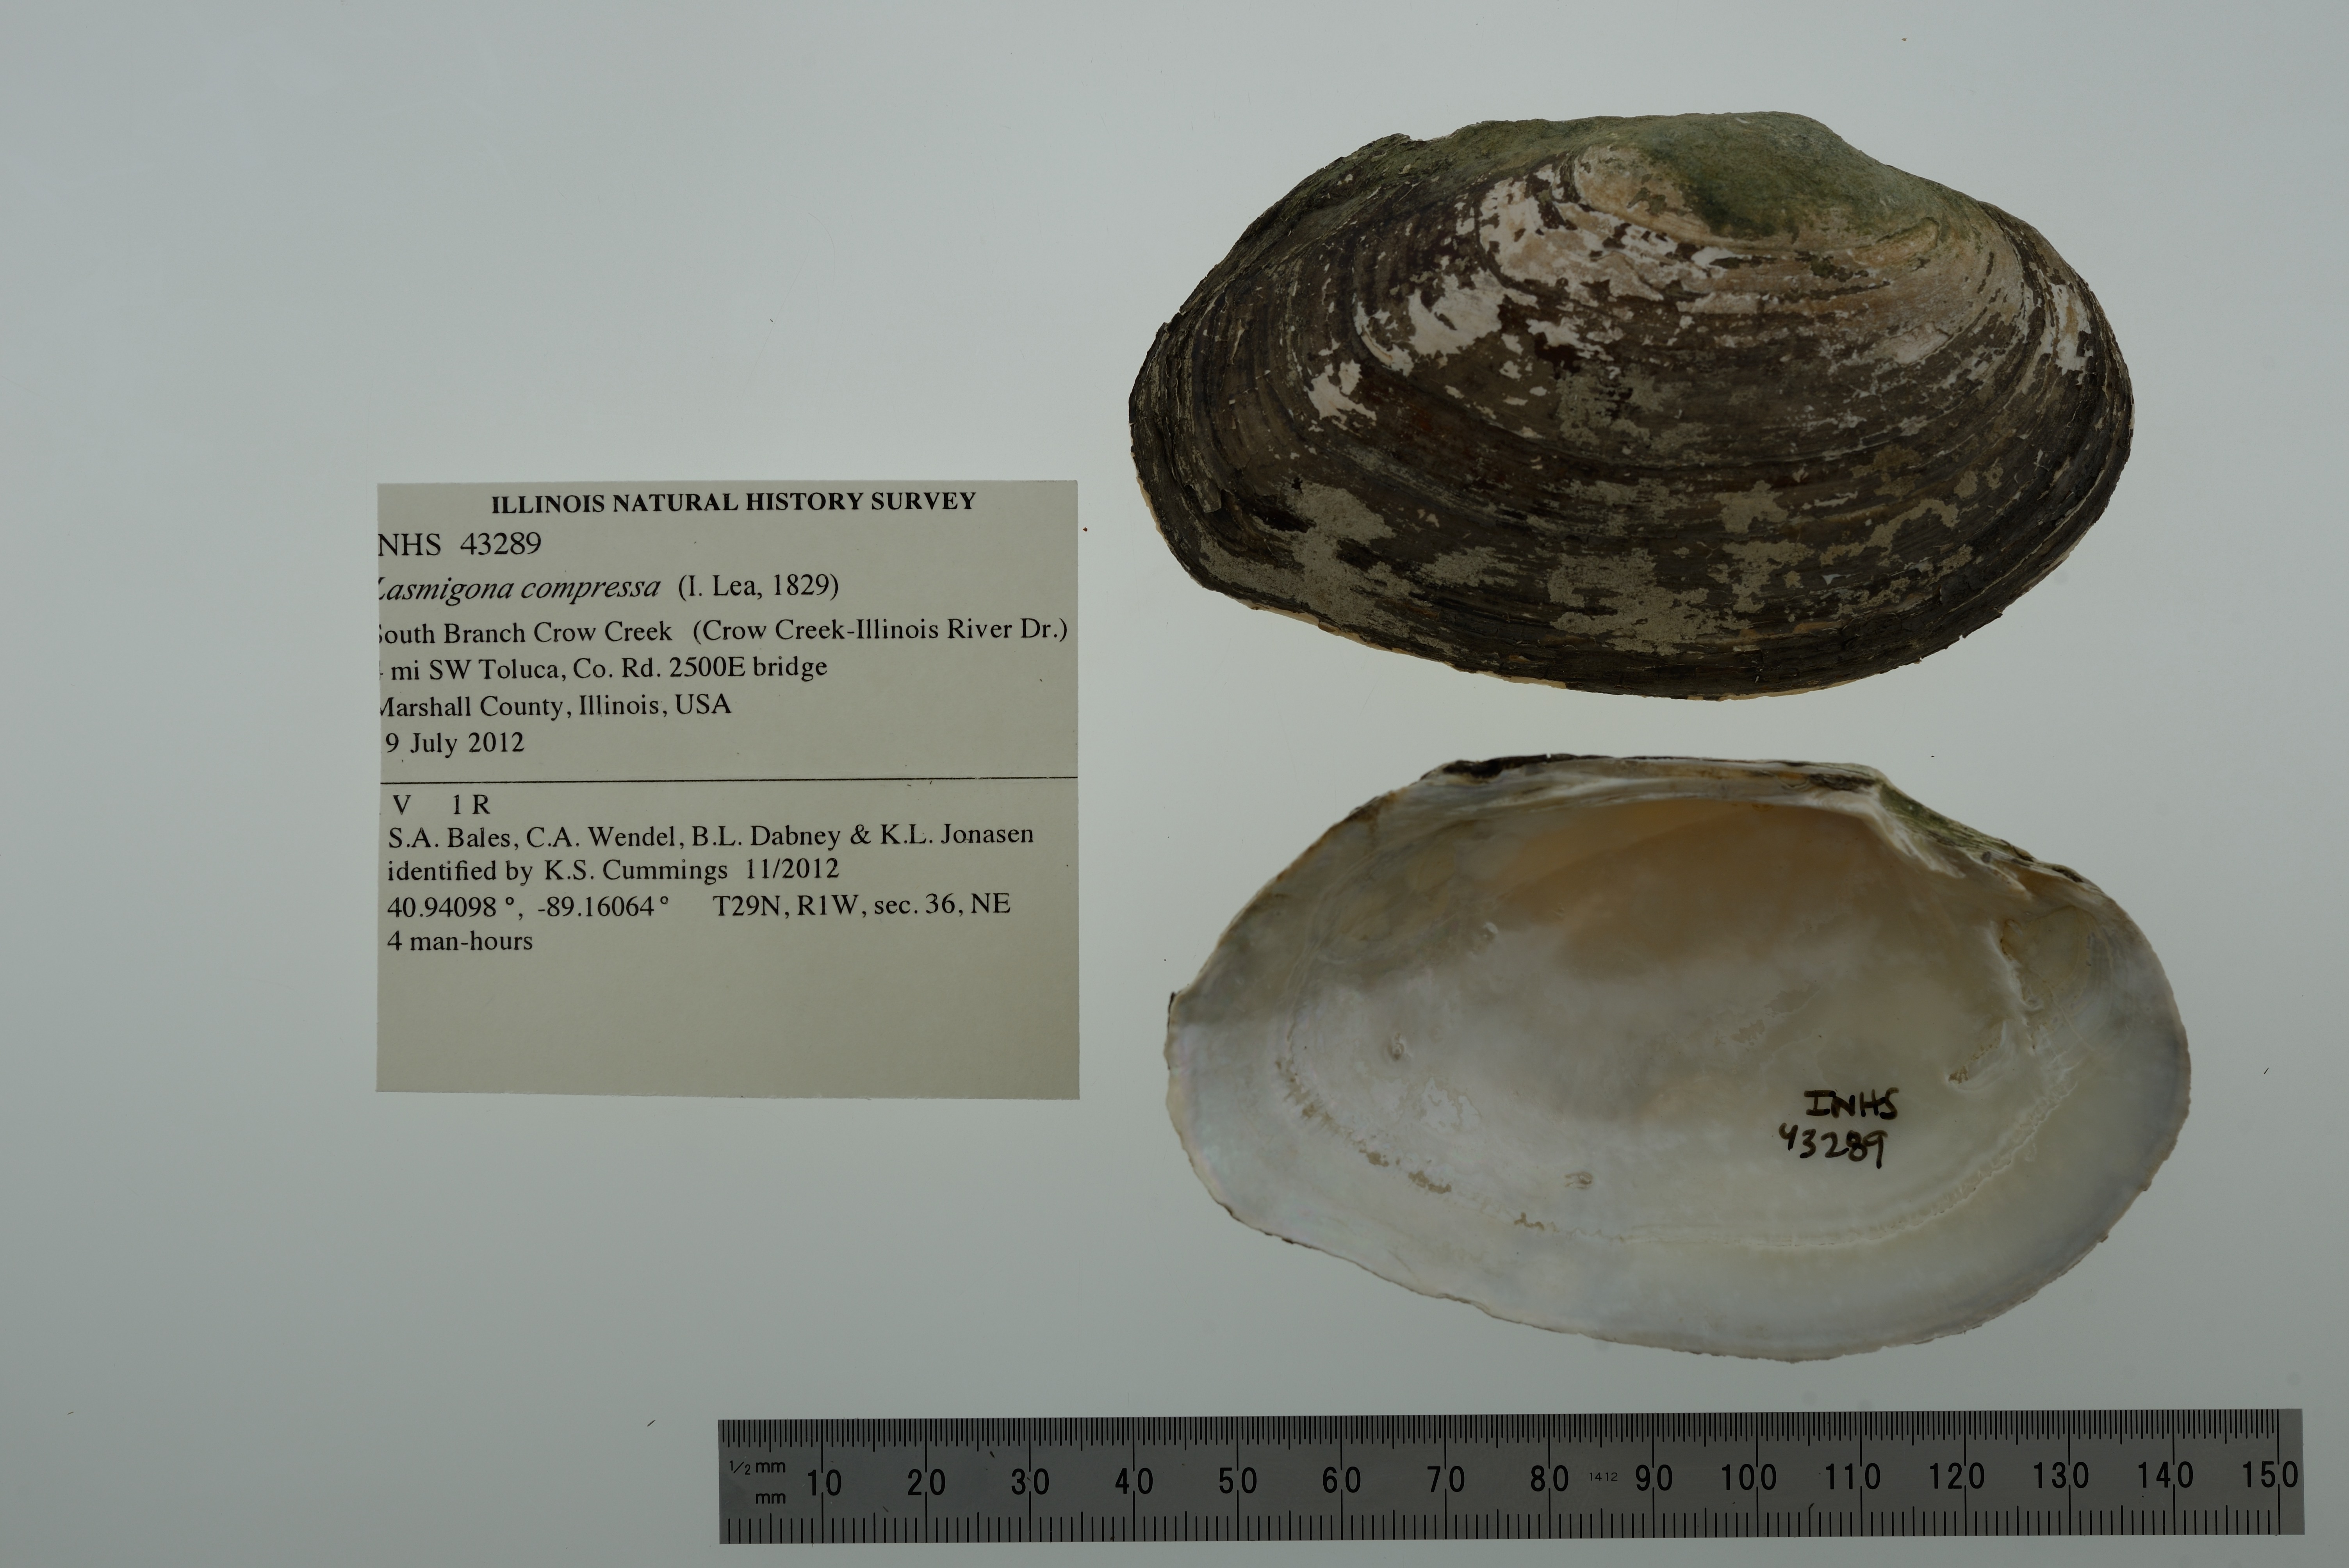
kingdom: Animalia
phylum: Mollusca
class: Bivalvia
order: Unionida
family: Unionidae
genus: Lasmigona
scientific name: Lasmigona compressa
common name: Creek heelsplitter
